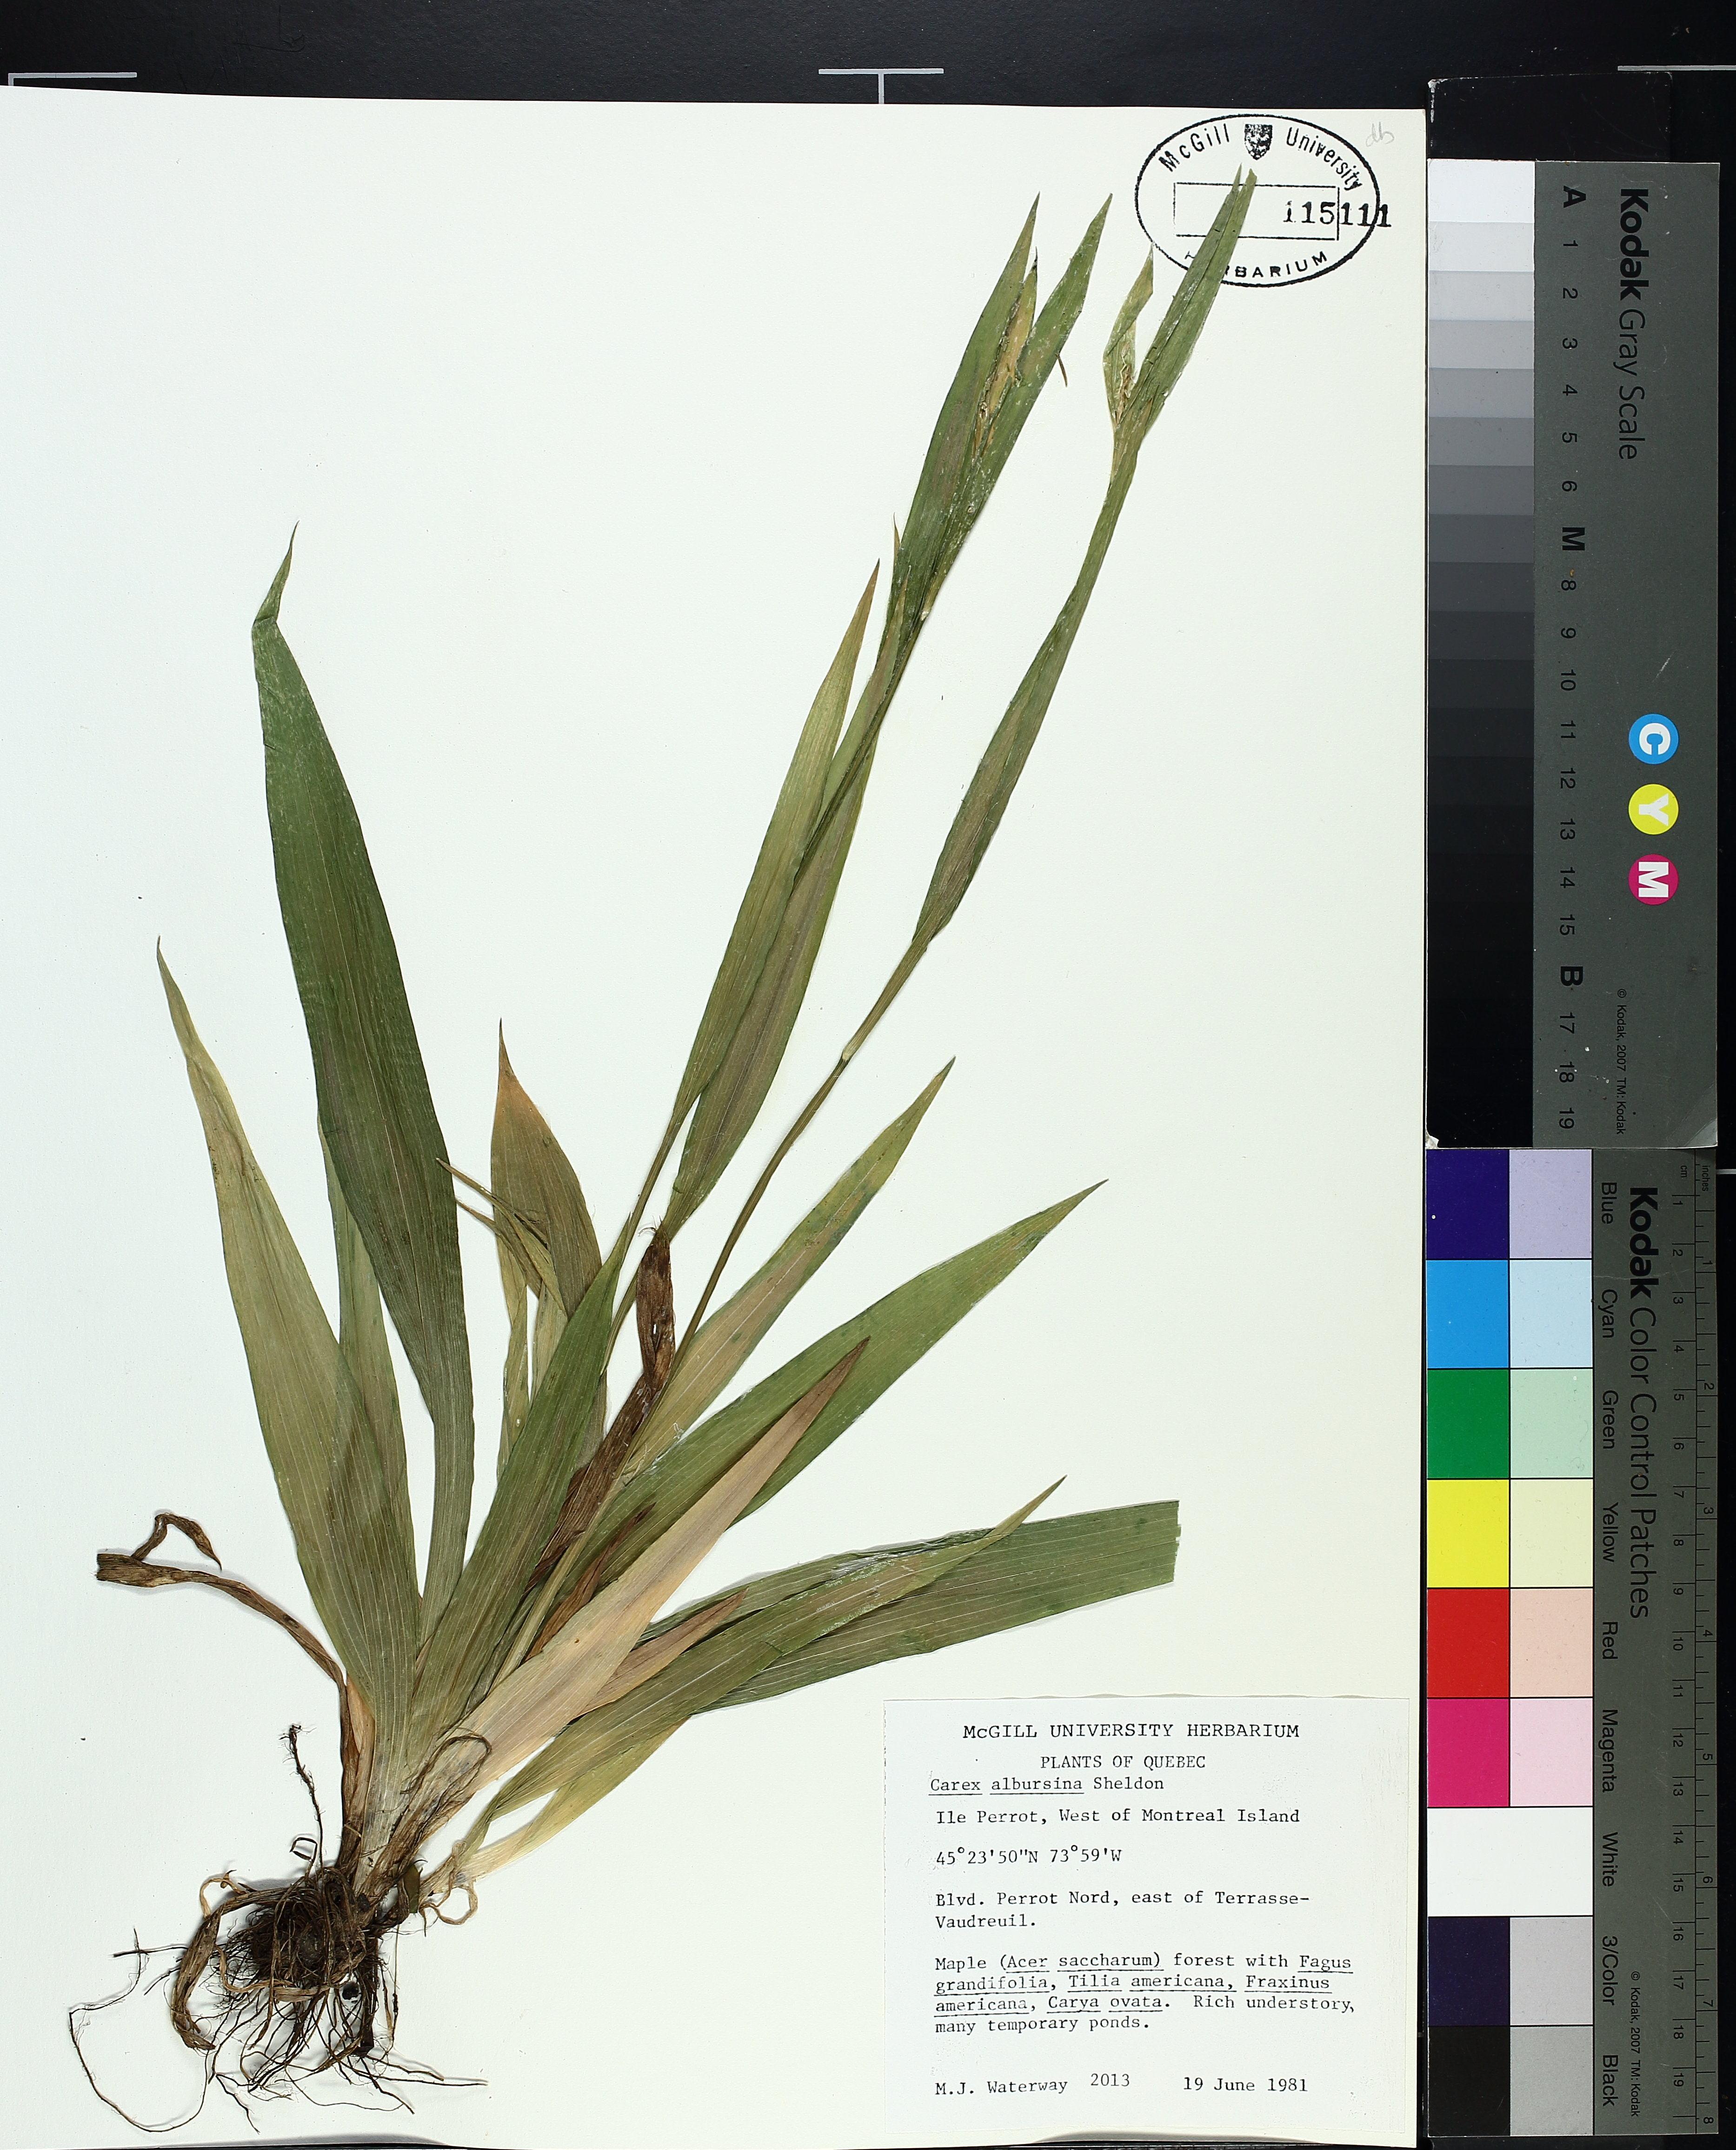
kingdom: Plantae
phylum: Tracheophyta
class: Liliopsida
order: Poales
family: Cyperaceae
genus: Carex
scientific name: Carex albursina
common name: Blunt-scale wood sedge
